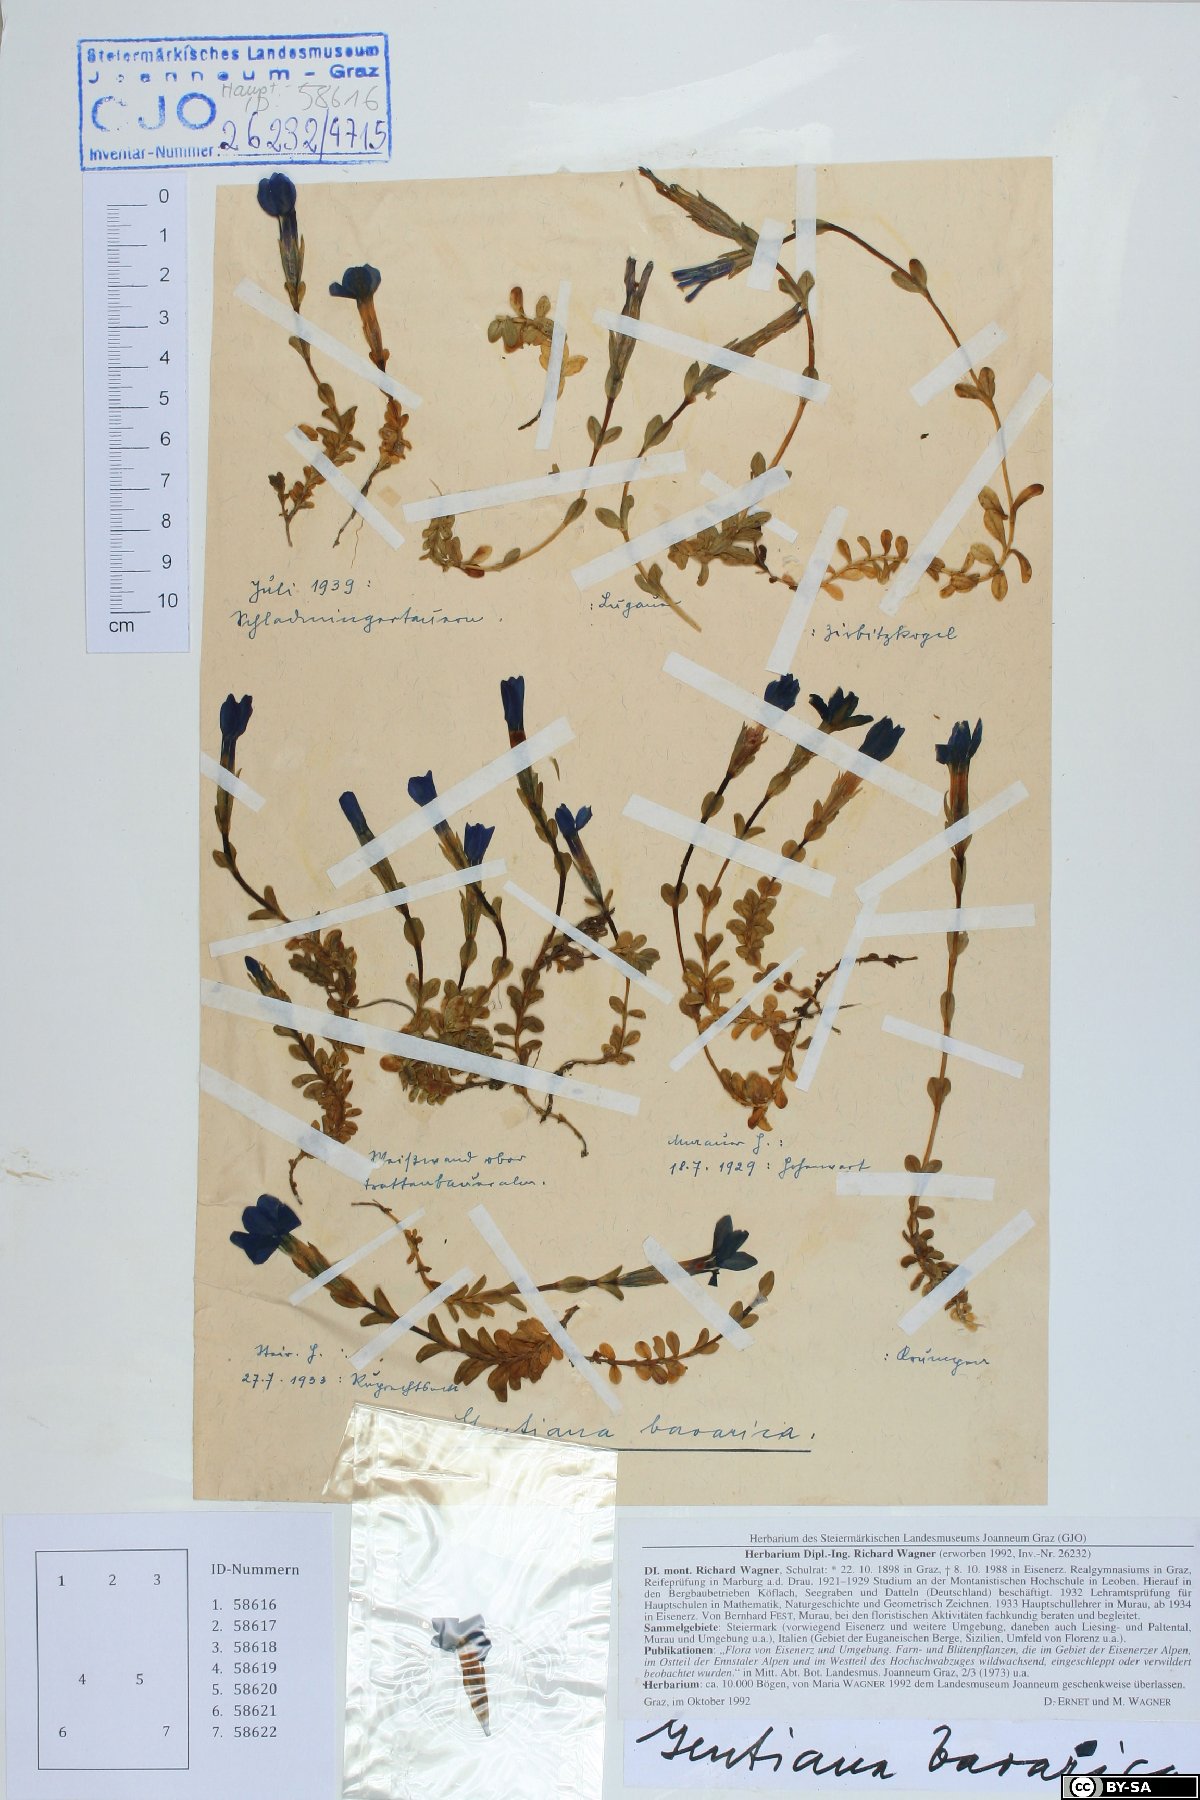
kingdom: Plantae
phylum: Tracheophyta
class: Magnoliopsida
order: Gentianales
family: Gentianaceae
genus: Gentiana
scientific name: Gentiana bavarica
